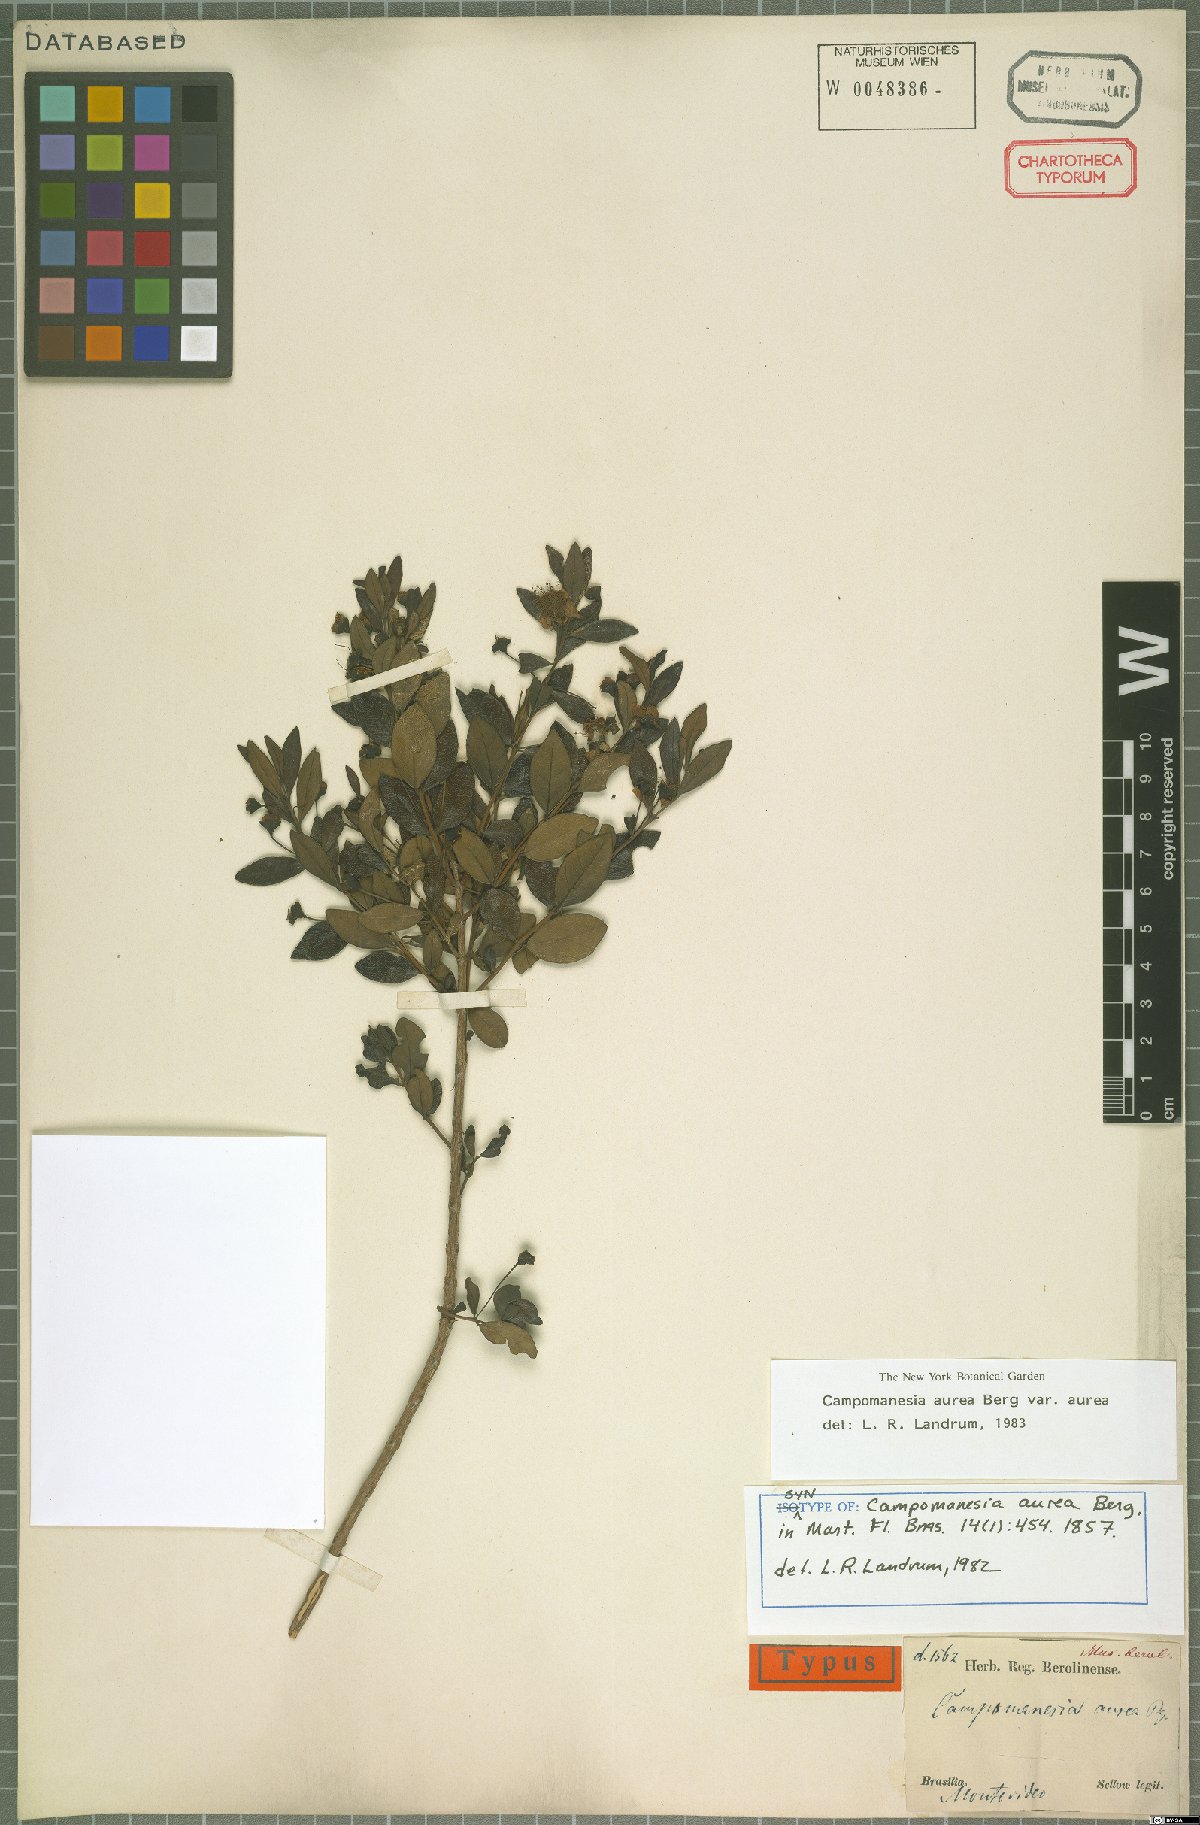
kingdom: Plantae
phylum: Tracheophyta
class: Magnoliopsida
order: Myrtales
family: Myrtaceae
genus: Campomanesia
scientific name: Campomanesia aurea
